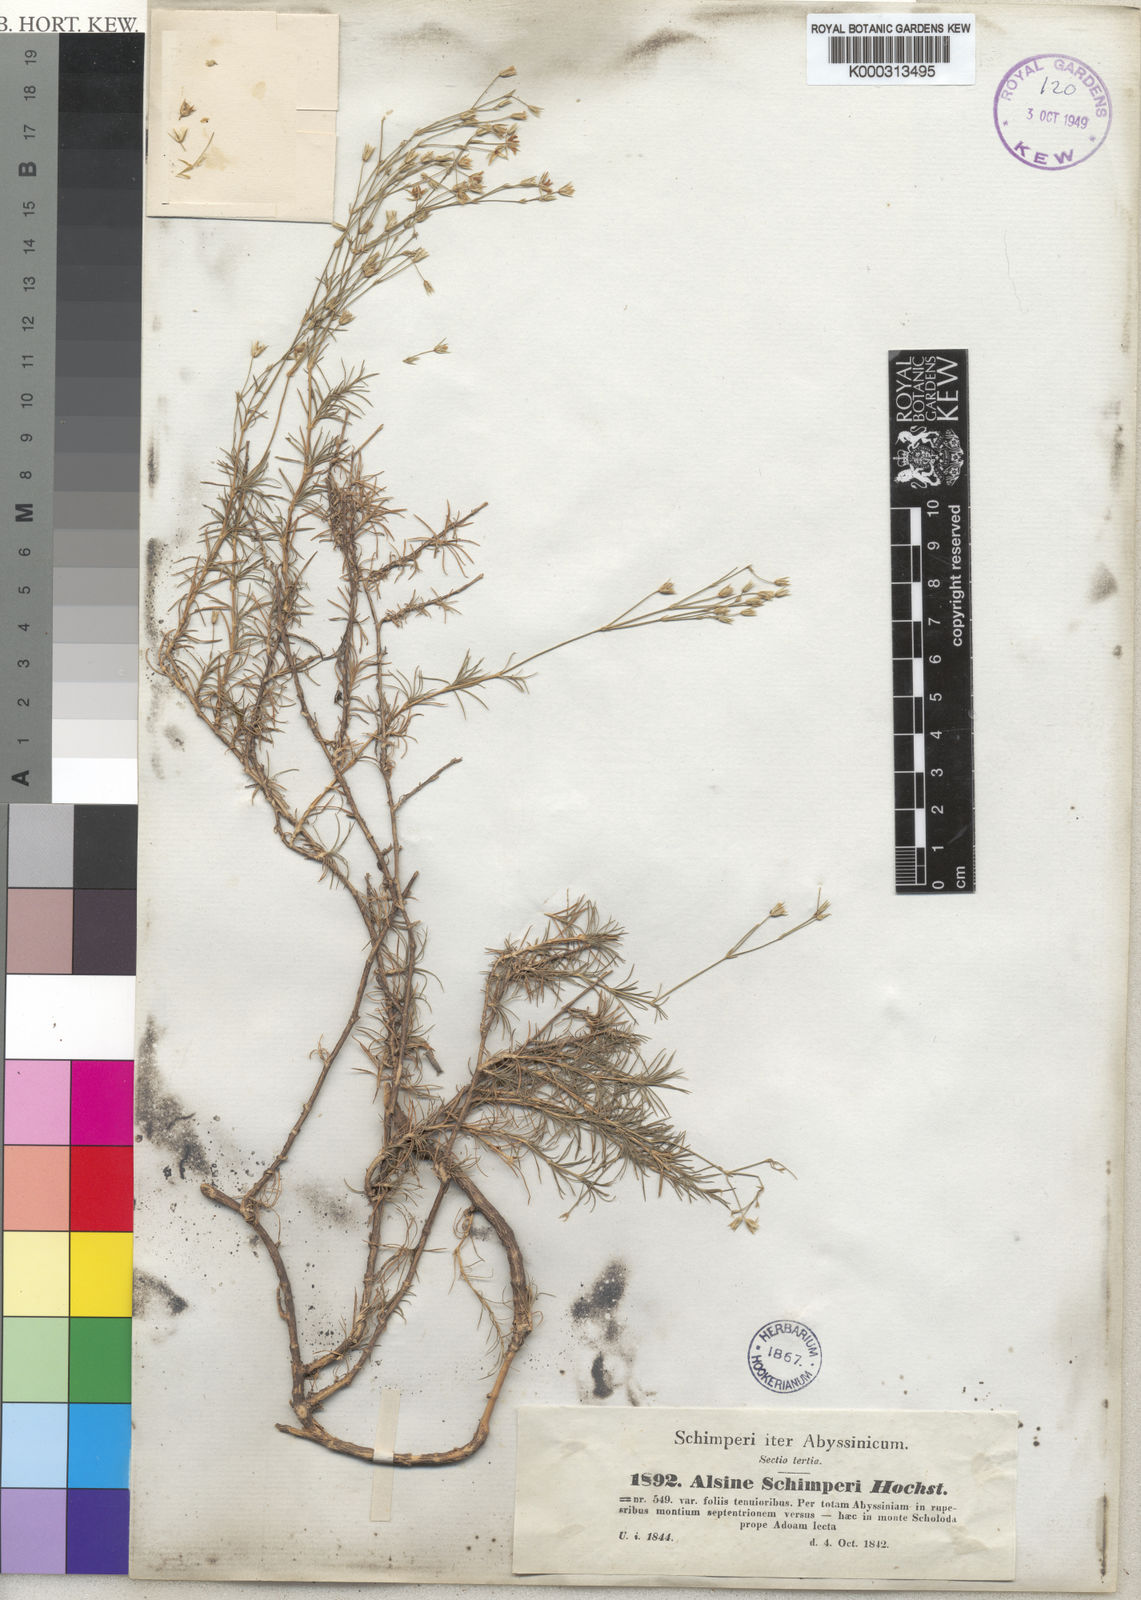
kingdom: Plantae
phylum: Tracheophyta
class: Magnoliopsida
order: Caryophyllales
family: Caryophyllaceae
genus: Alsine
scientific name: Alsine
